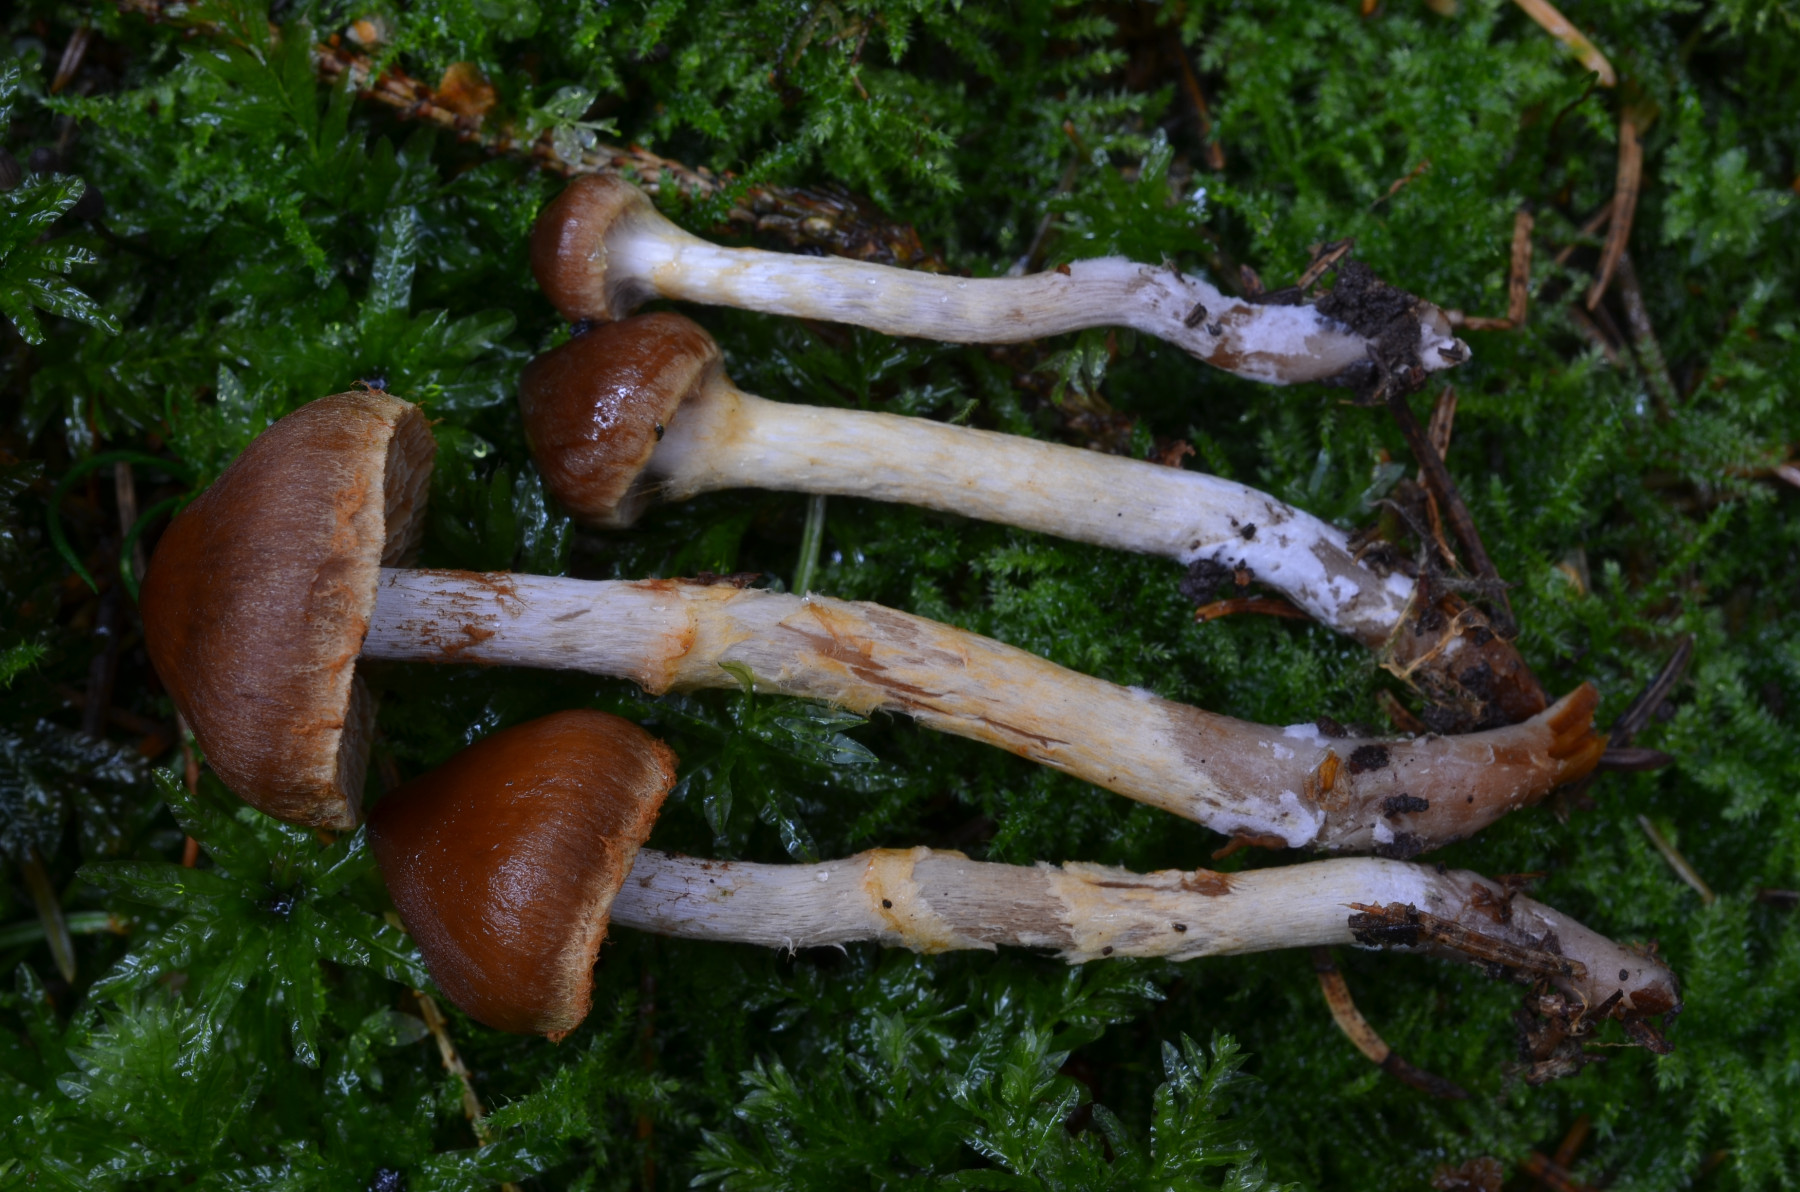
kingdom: Fungi
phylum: Basidiomycota
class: Agaricomycetes
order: Agaricales
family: Cortinariaceae
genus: Cortinarius
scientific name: Cortinarius saniosus
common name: gultrævlet slørhat
